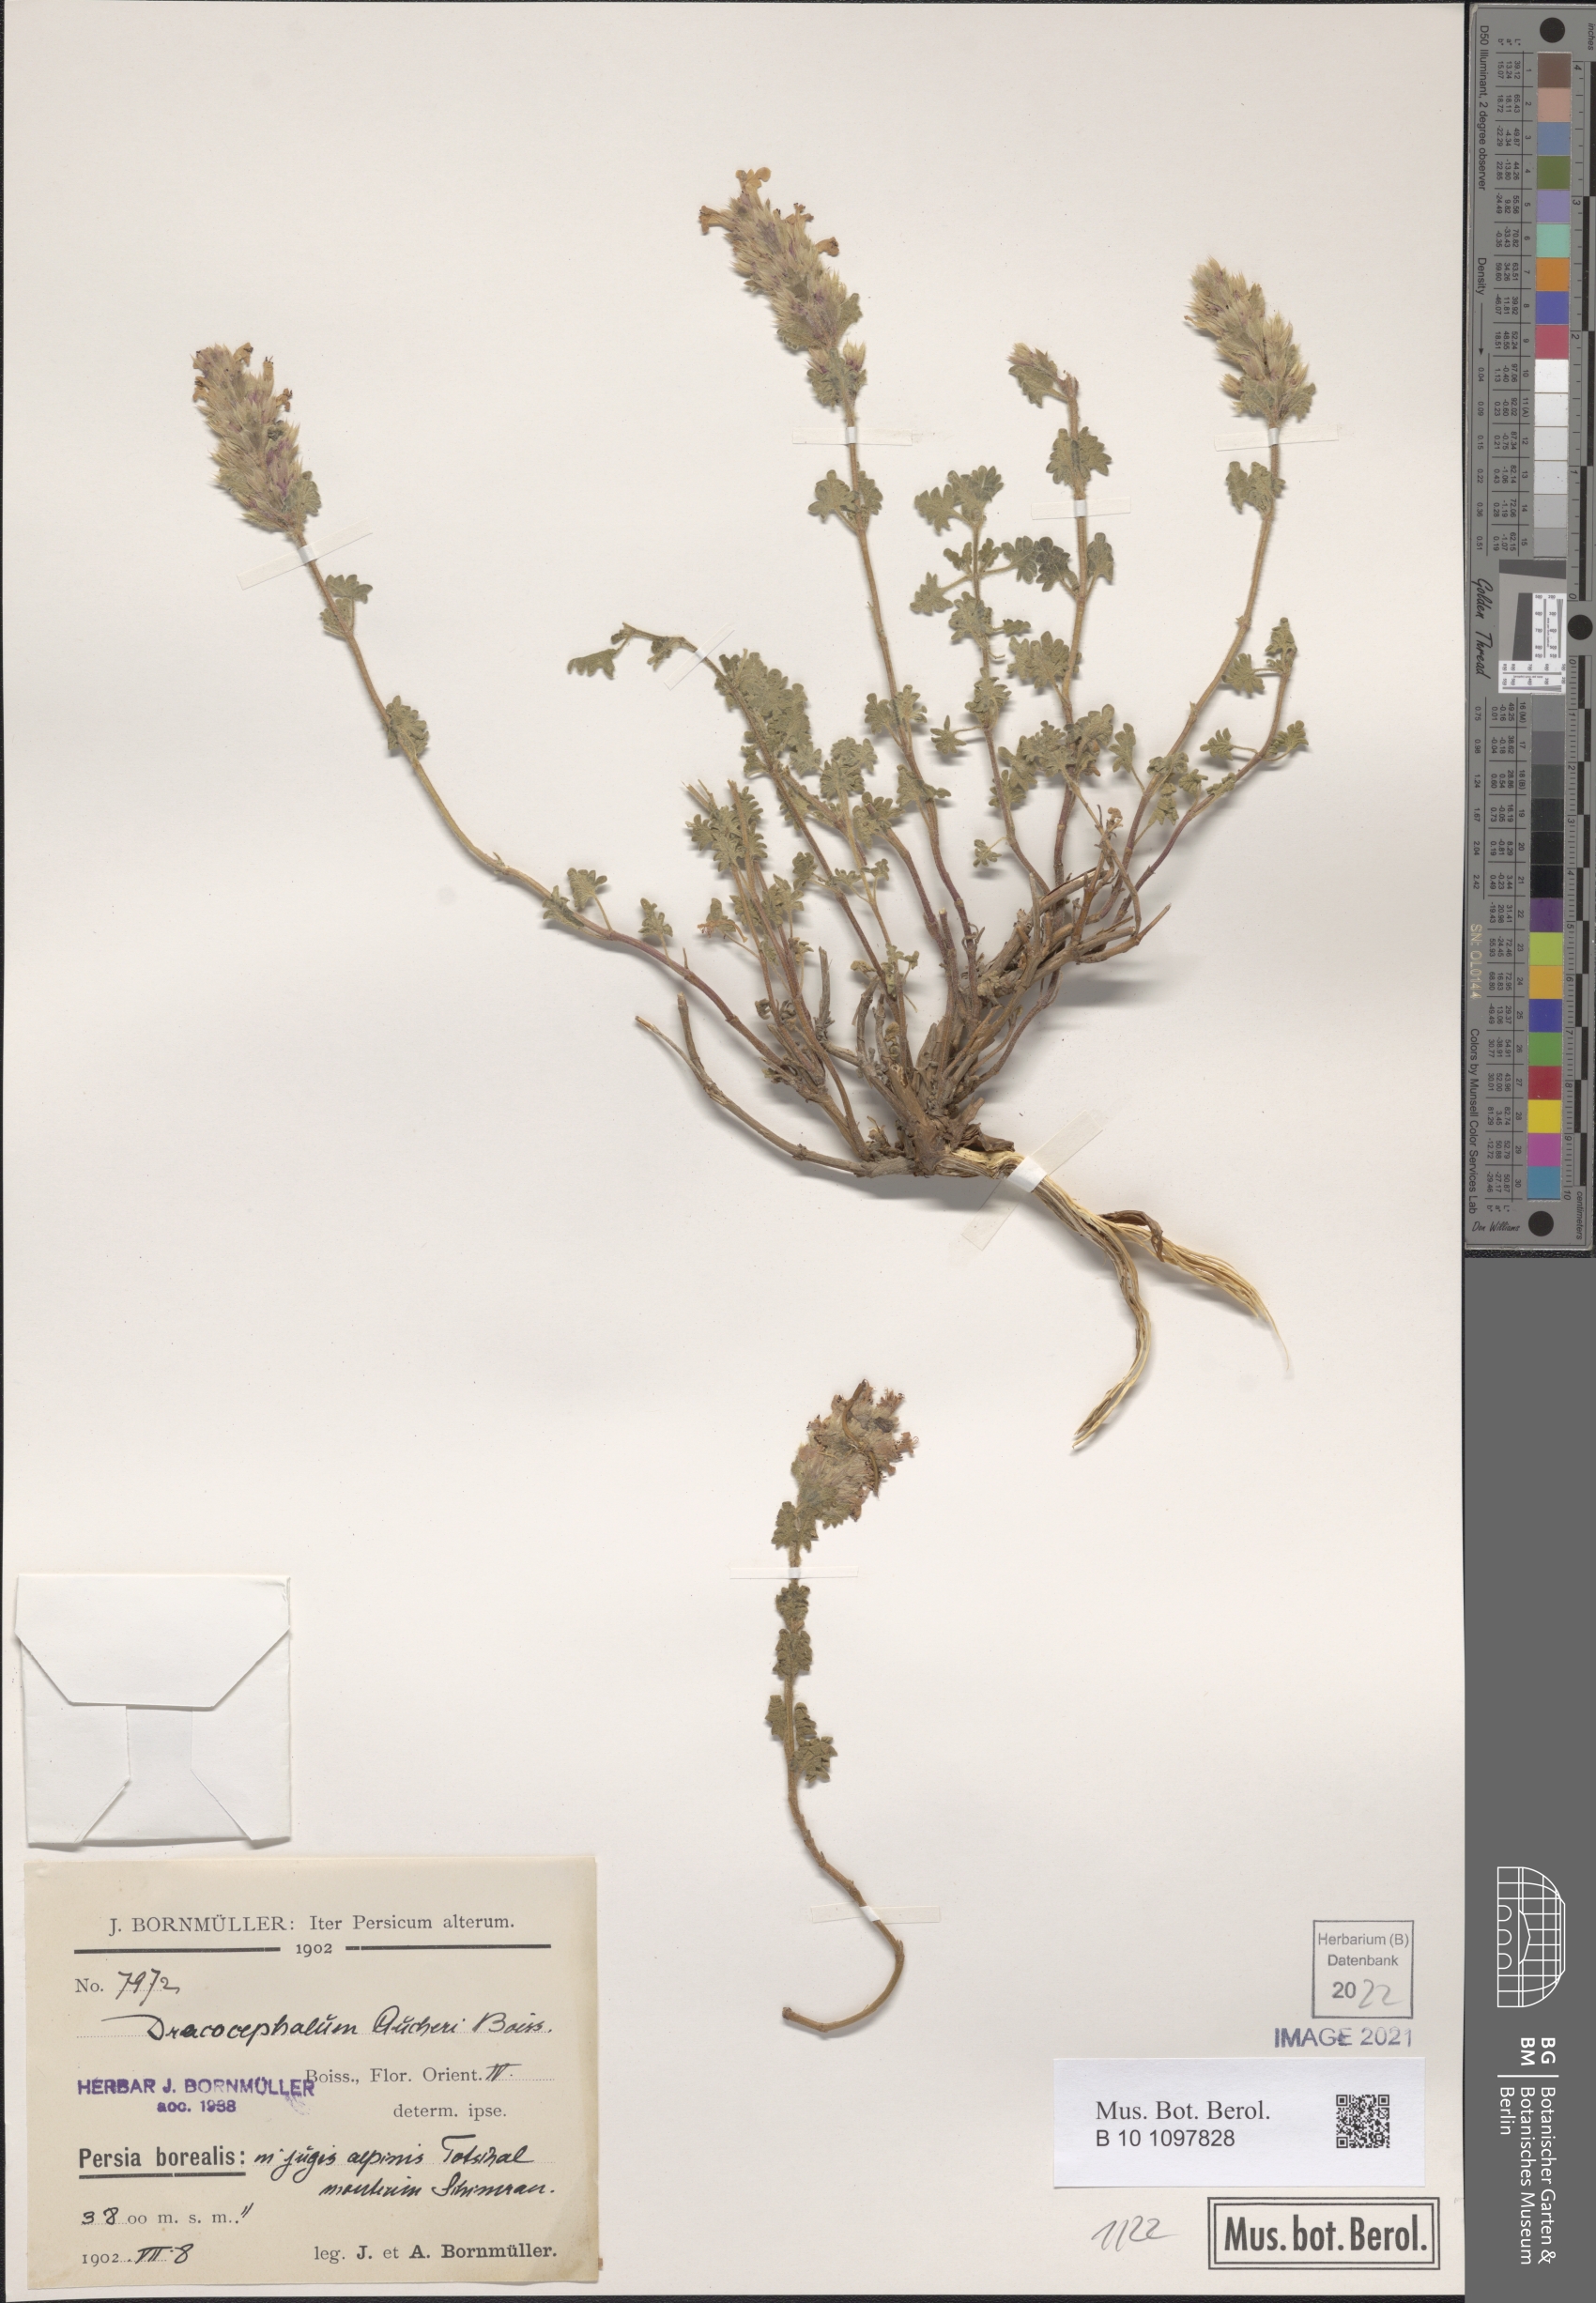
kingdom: Plantae
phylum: Tracheophyta
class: Magnoliopsida
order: Lamiales
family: Lamiaceae
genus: Dracocephalum
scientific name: Dracocephalum aucheri
